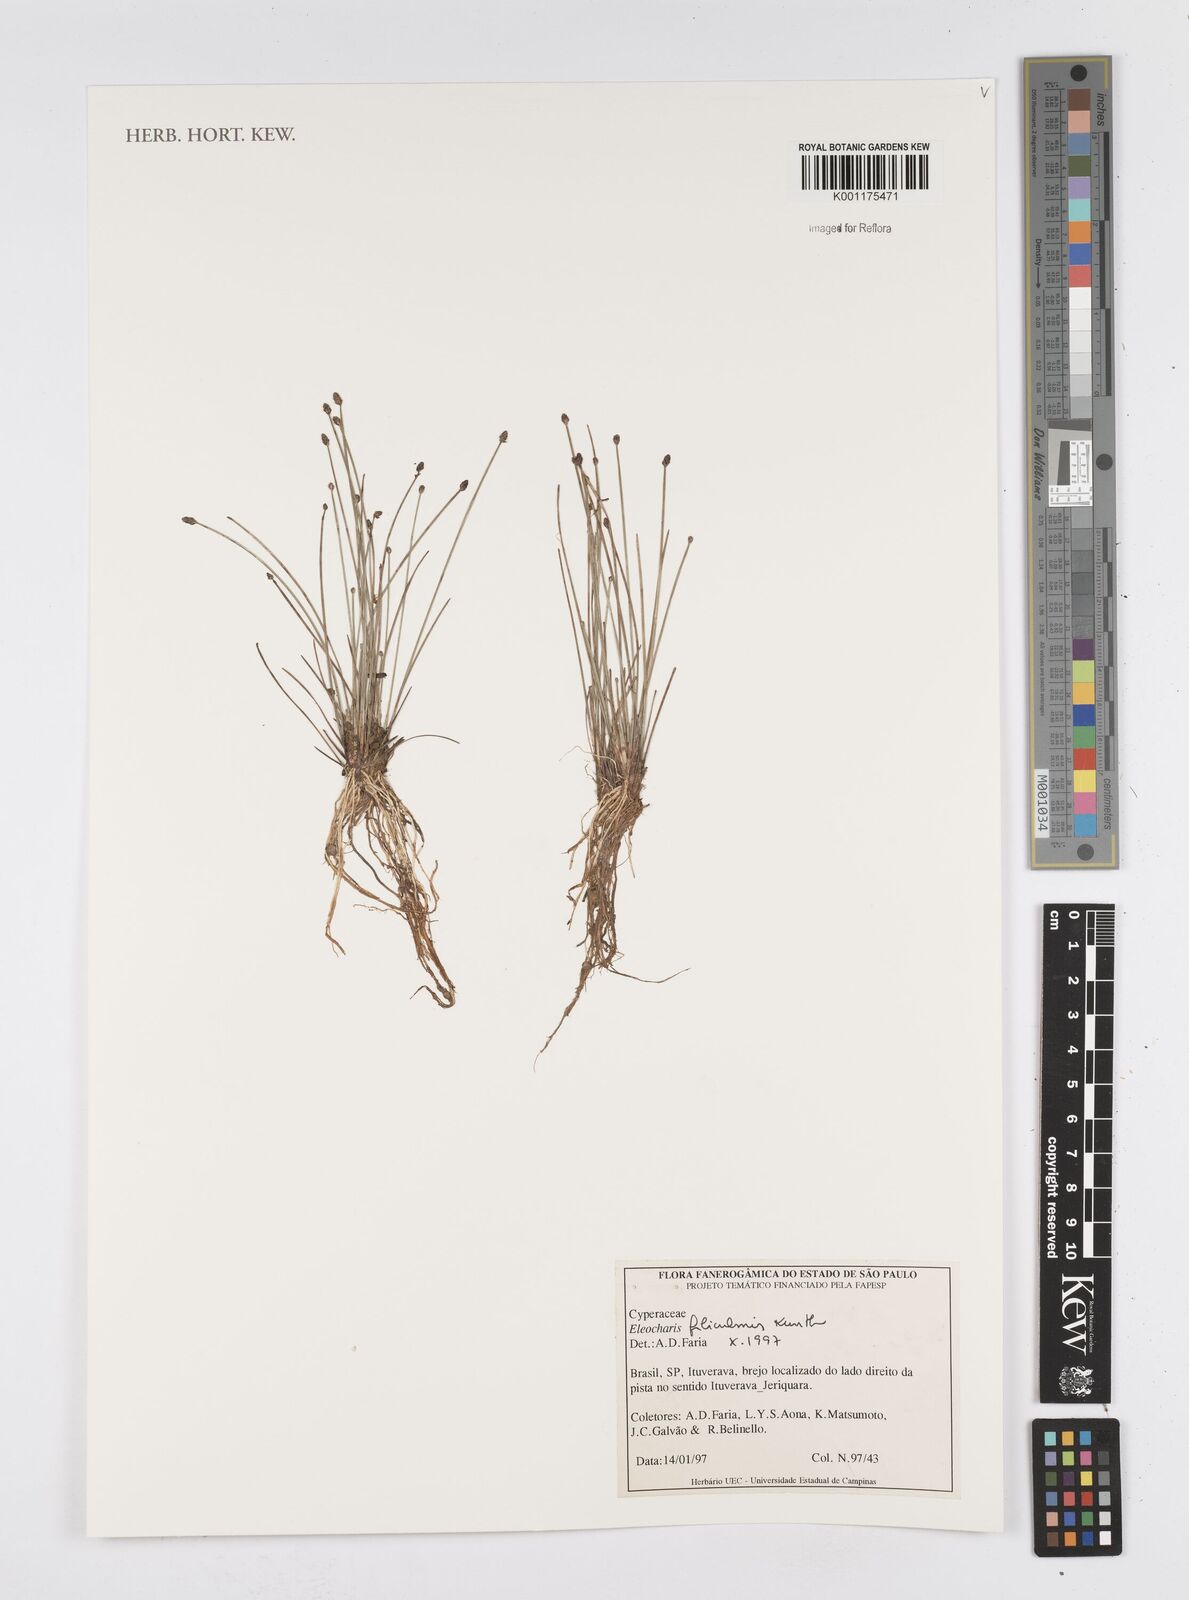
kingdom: Plantae
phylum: Tracheophyta
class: Liliopsida
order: Poales
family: Cyperaceae
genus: Eleocharis
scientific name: Eleocharis filiculmis
